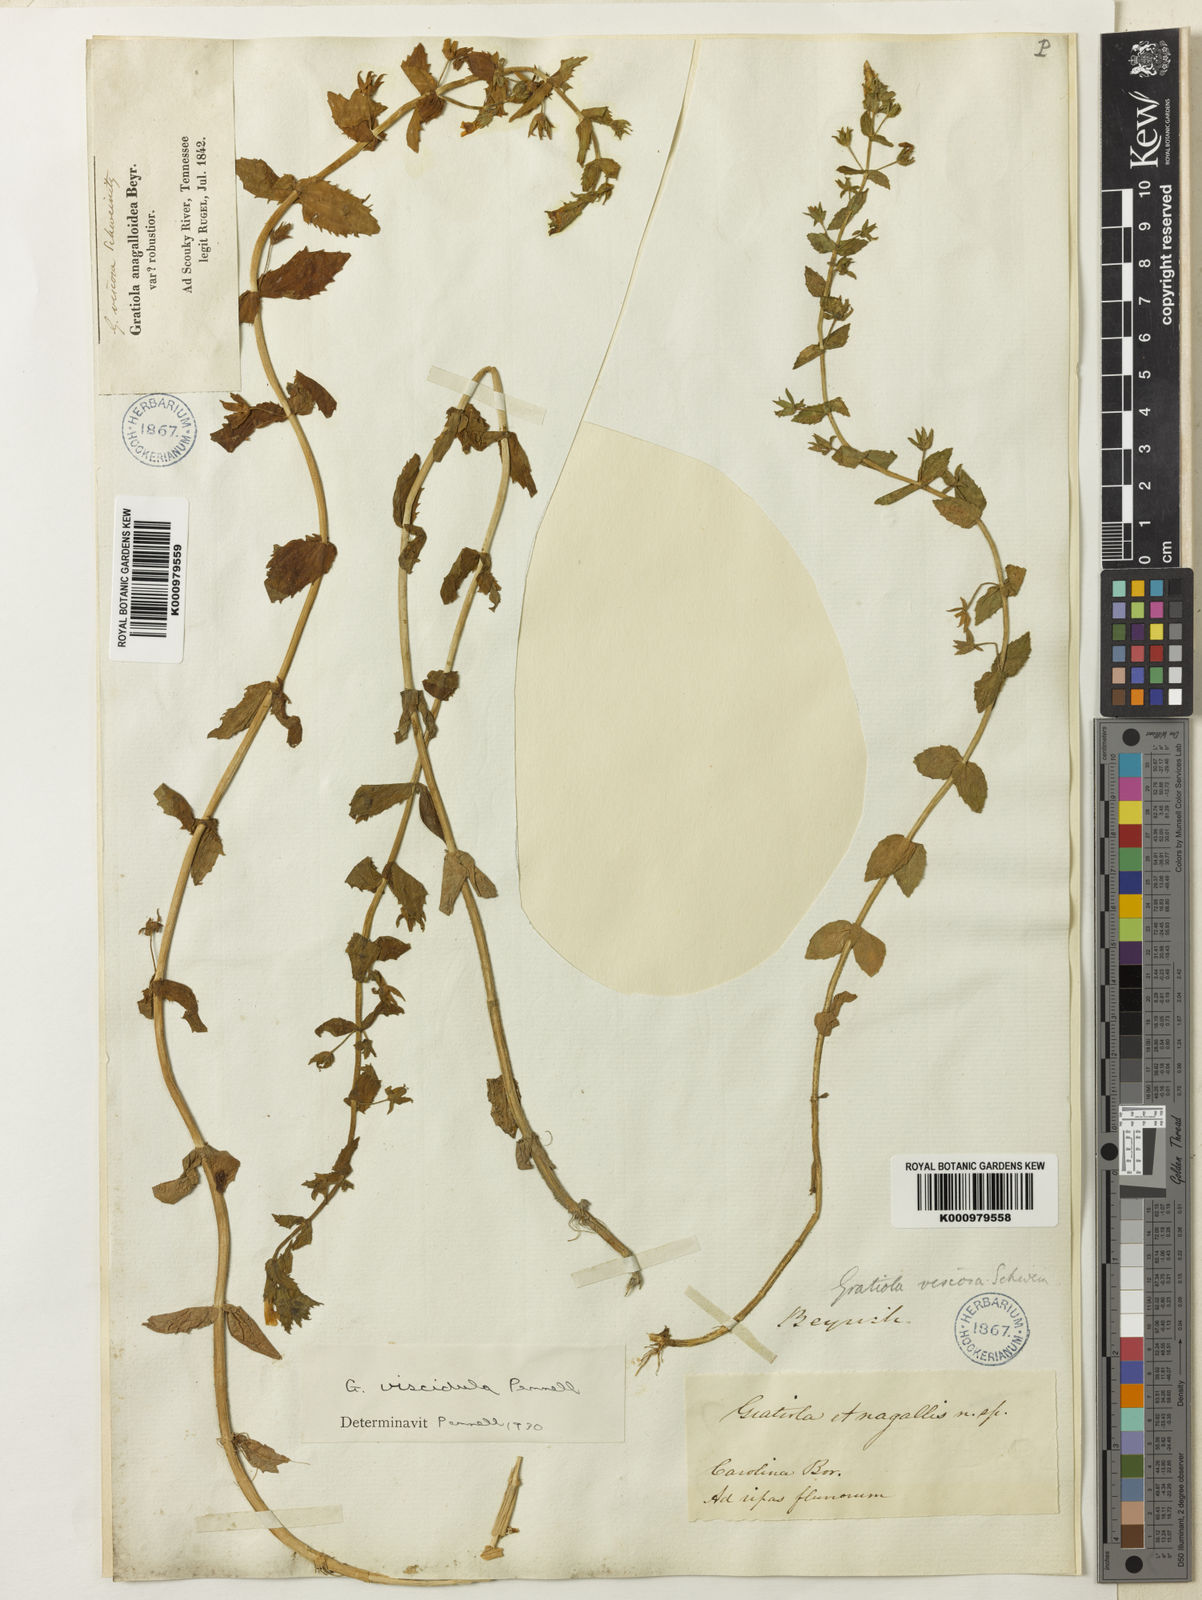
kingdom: Plantae
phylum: Tracheophyta
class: Magnoliopsida
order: Lamiales
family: Plantaginaceae
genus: Gratiola
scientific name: Gratiola lutea
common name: Golden hedge-hyssop
